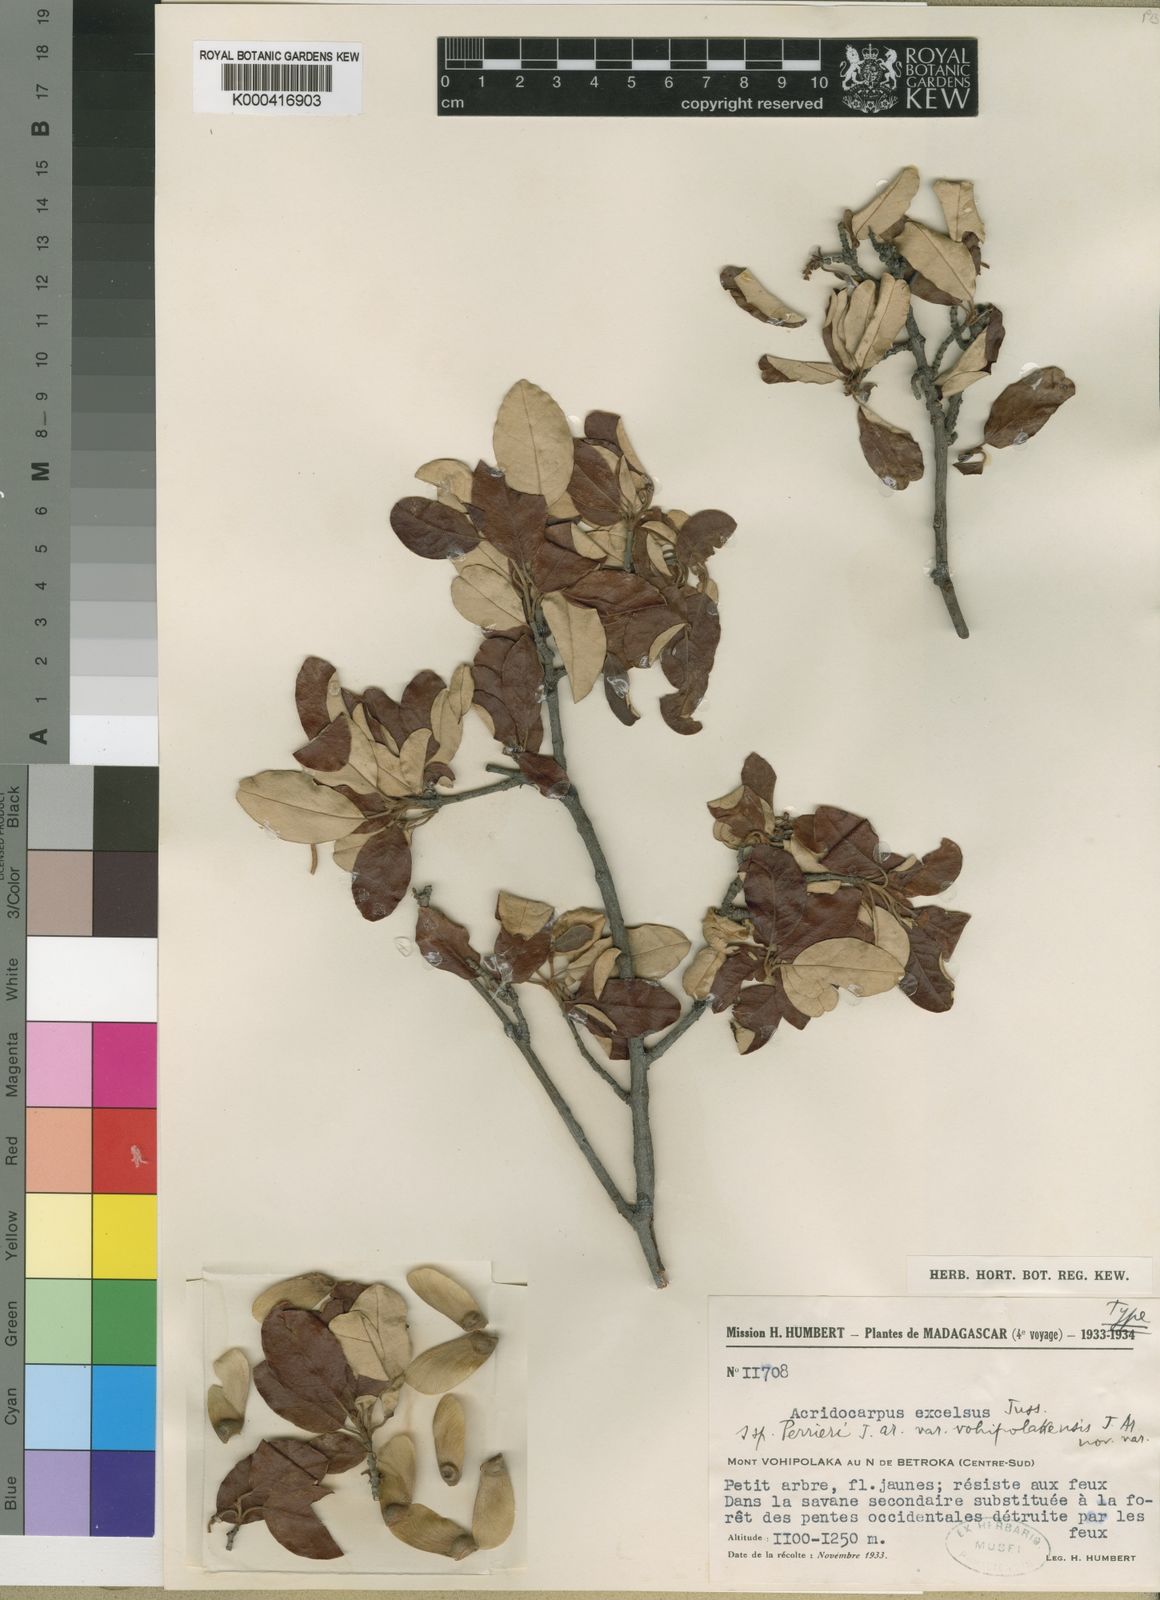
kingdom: Plantae
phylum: Tracheophyta
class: Magnoliopsida
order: Malpighiales
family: Malpighiaceae
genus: Acridocarpus
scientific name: Acridocarpus excelsus
